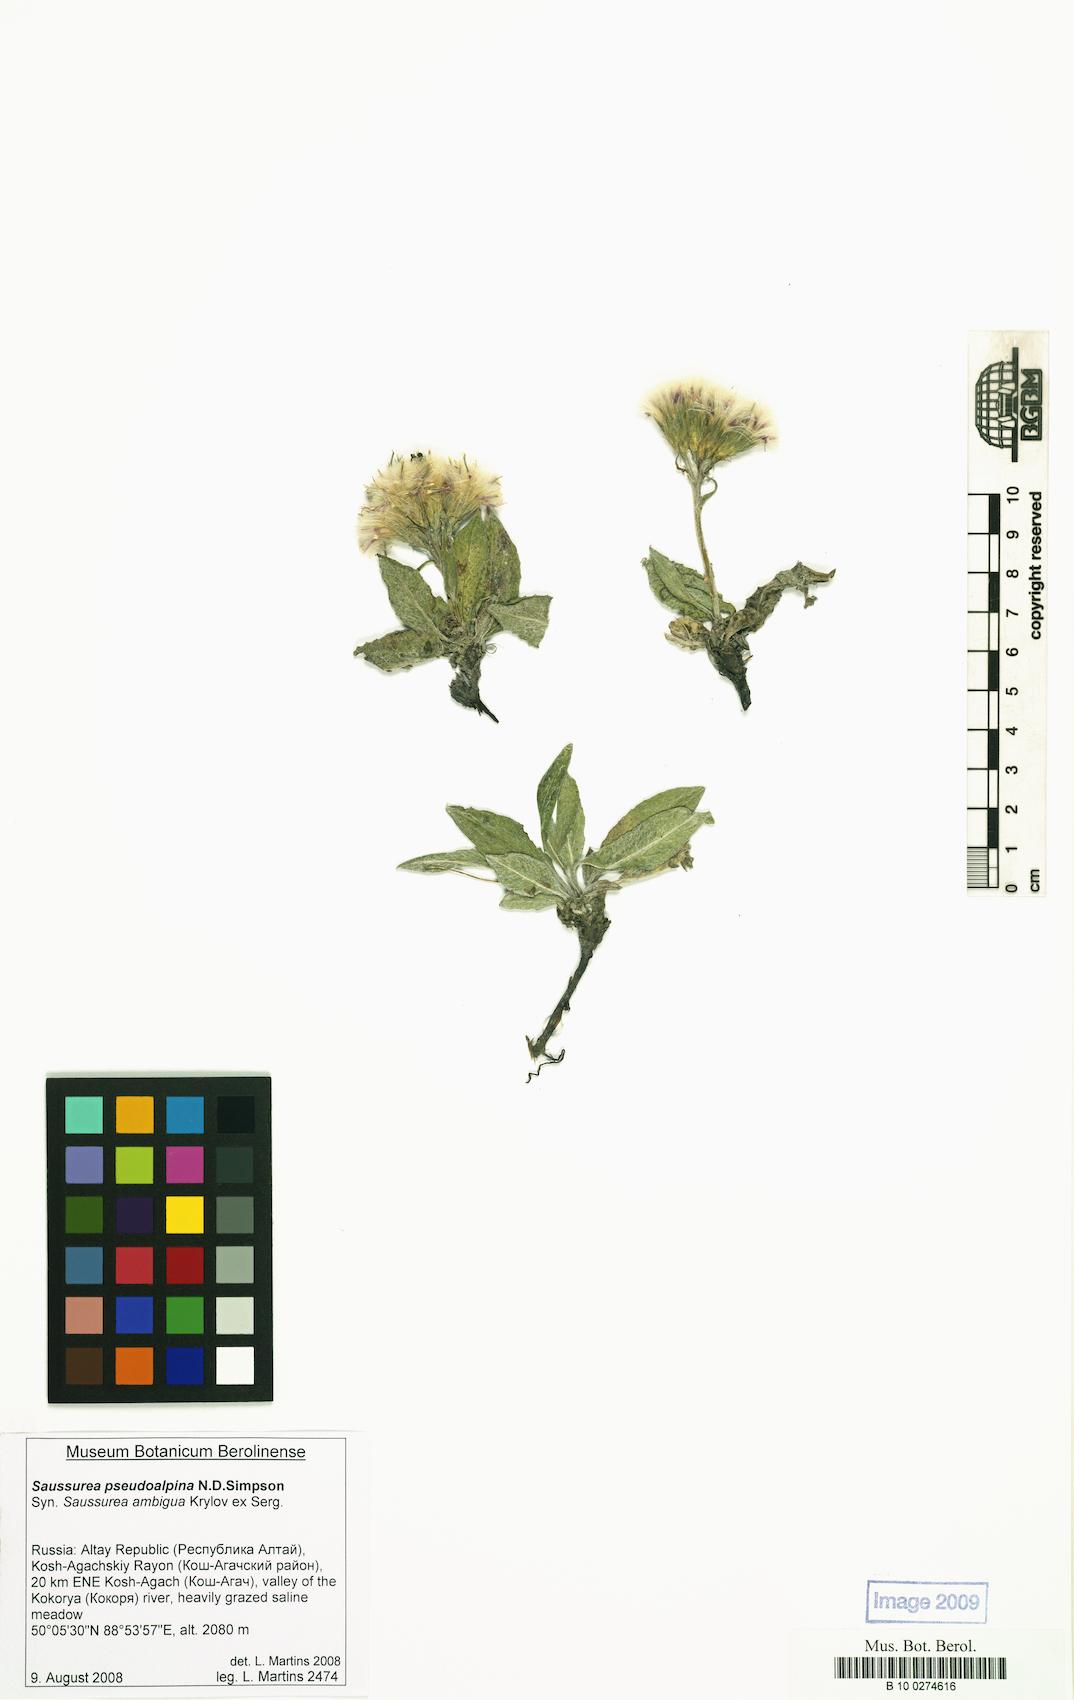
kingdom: Plantae
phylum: Tracheophyta
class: Magnoliopsida
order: Asterales
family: Asteraceae
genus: Saussurea
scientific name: Saussurea pseudoalpina
